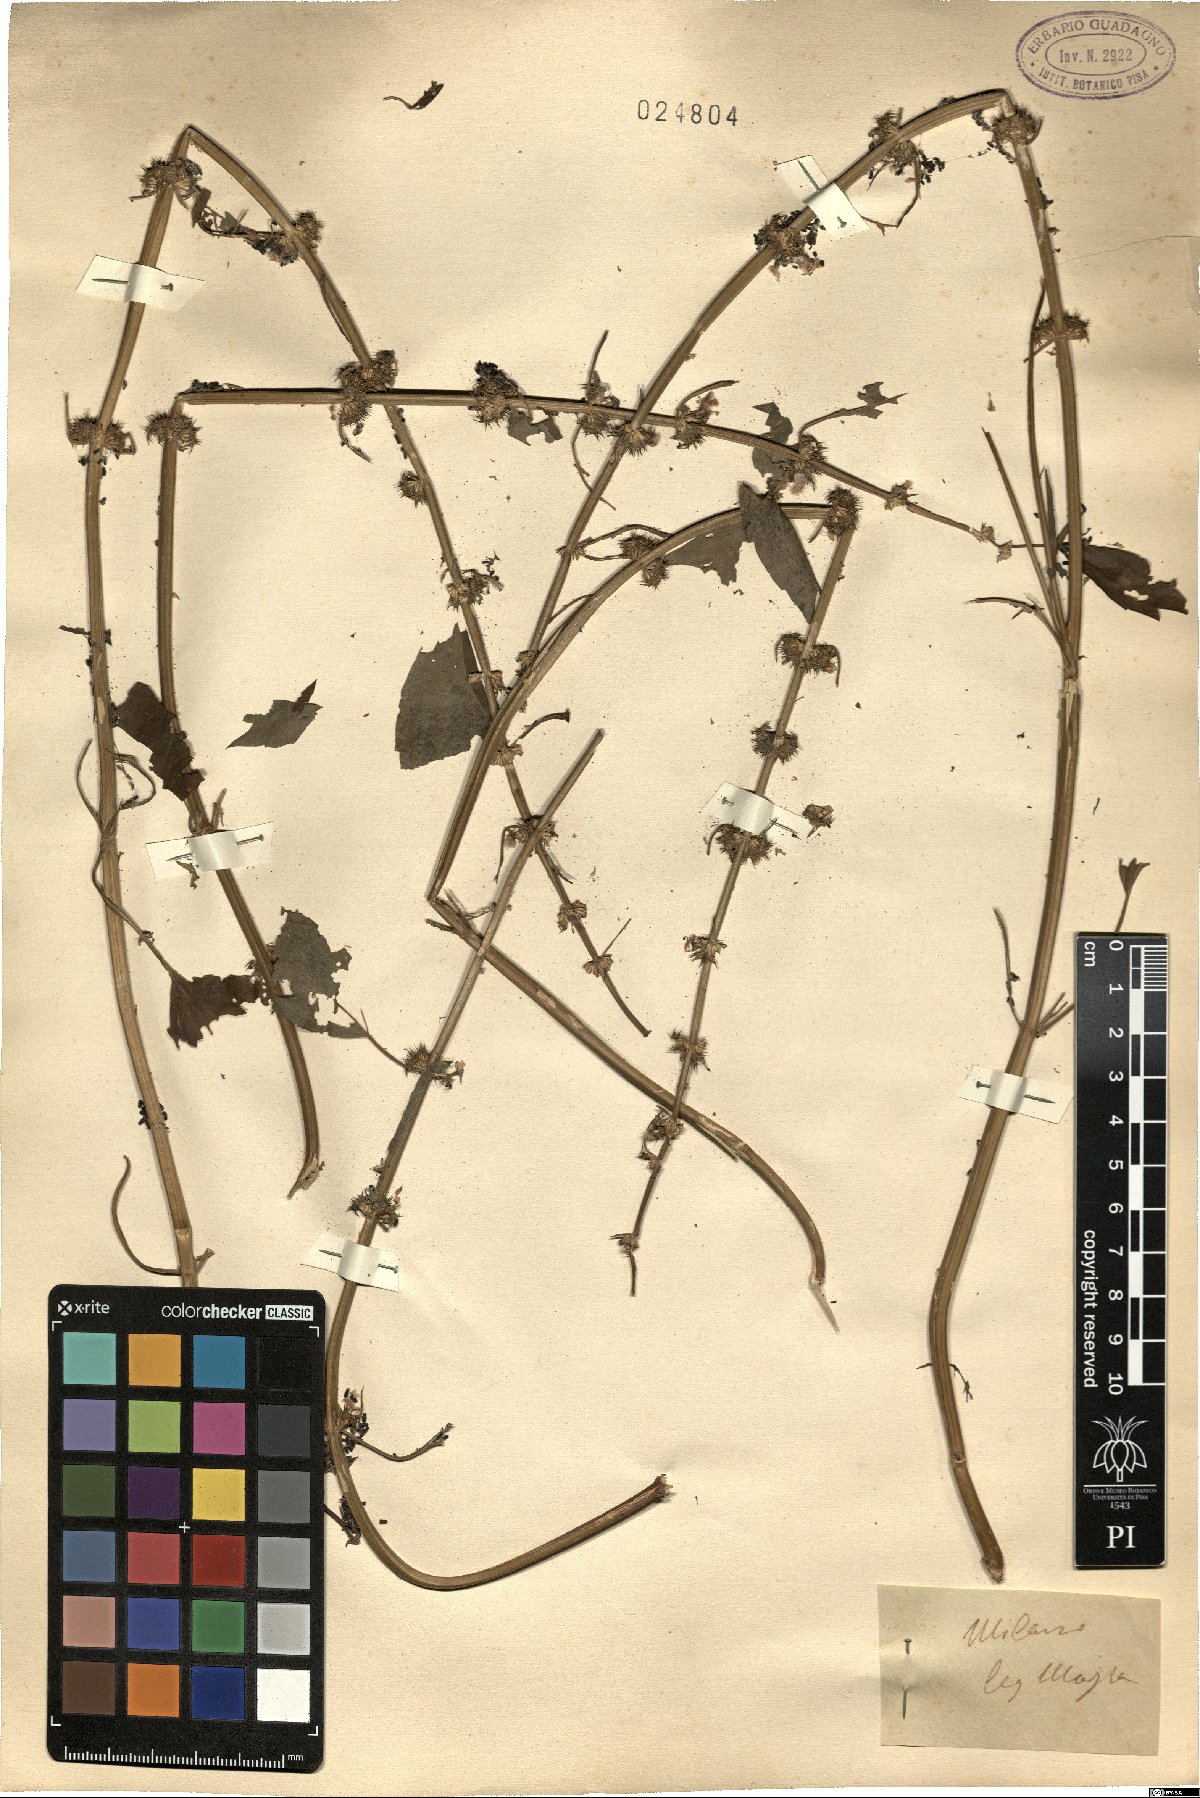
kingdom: Plantae
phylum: Tracheophyta
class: Magnoliopsida
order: Lamiales
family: Lamiaceae
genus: Leonurus
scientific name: Leonurus
